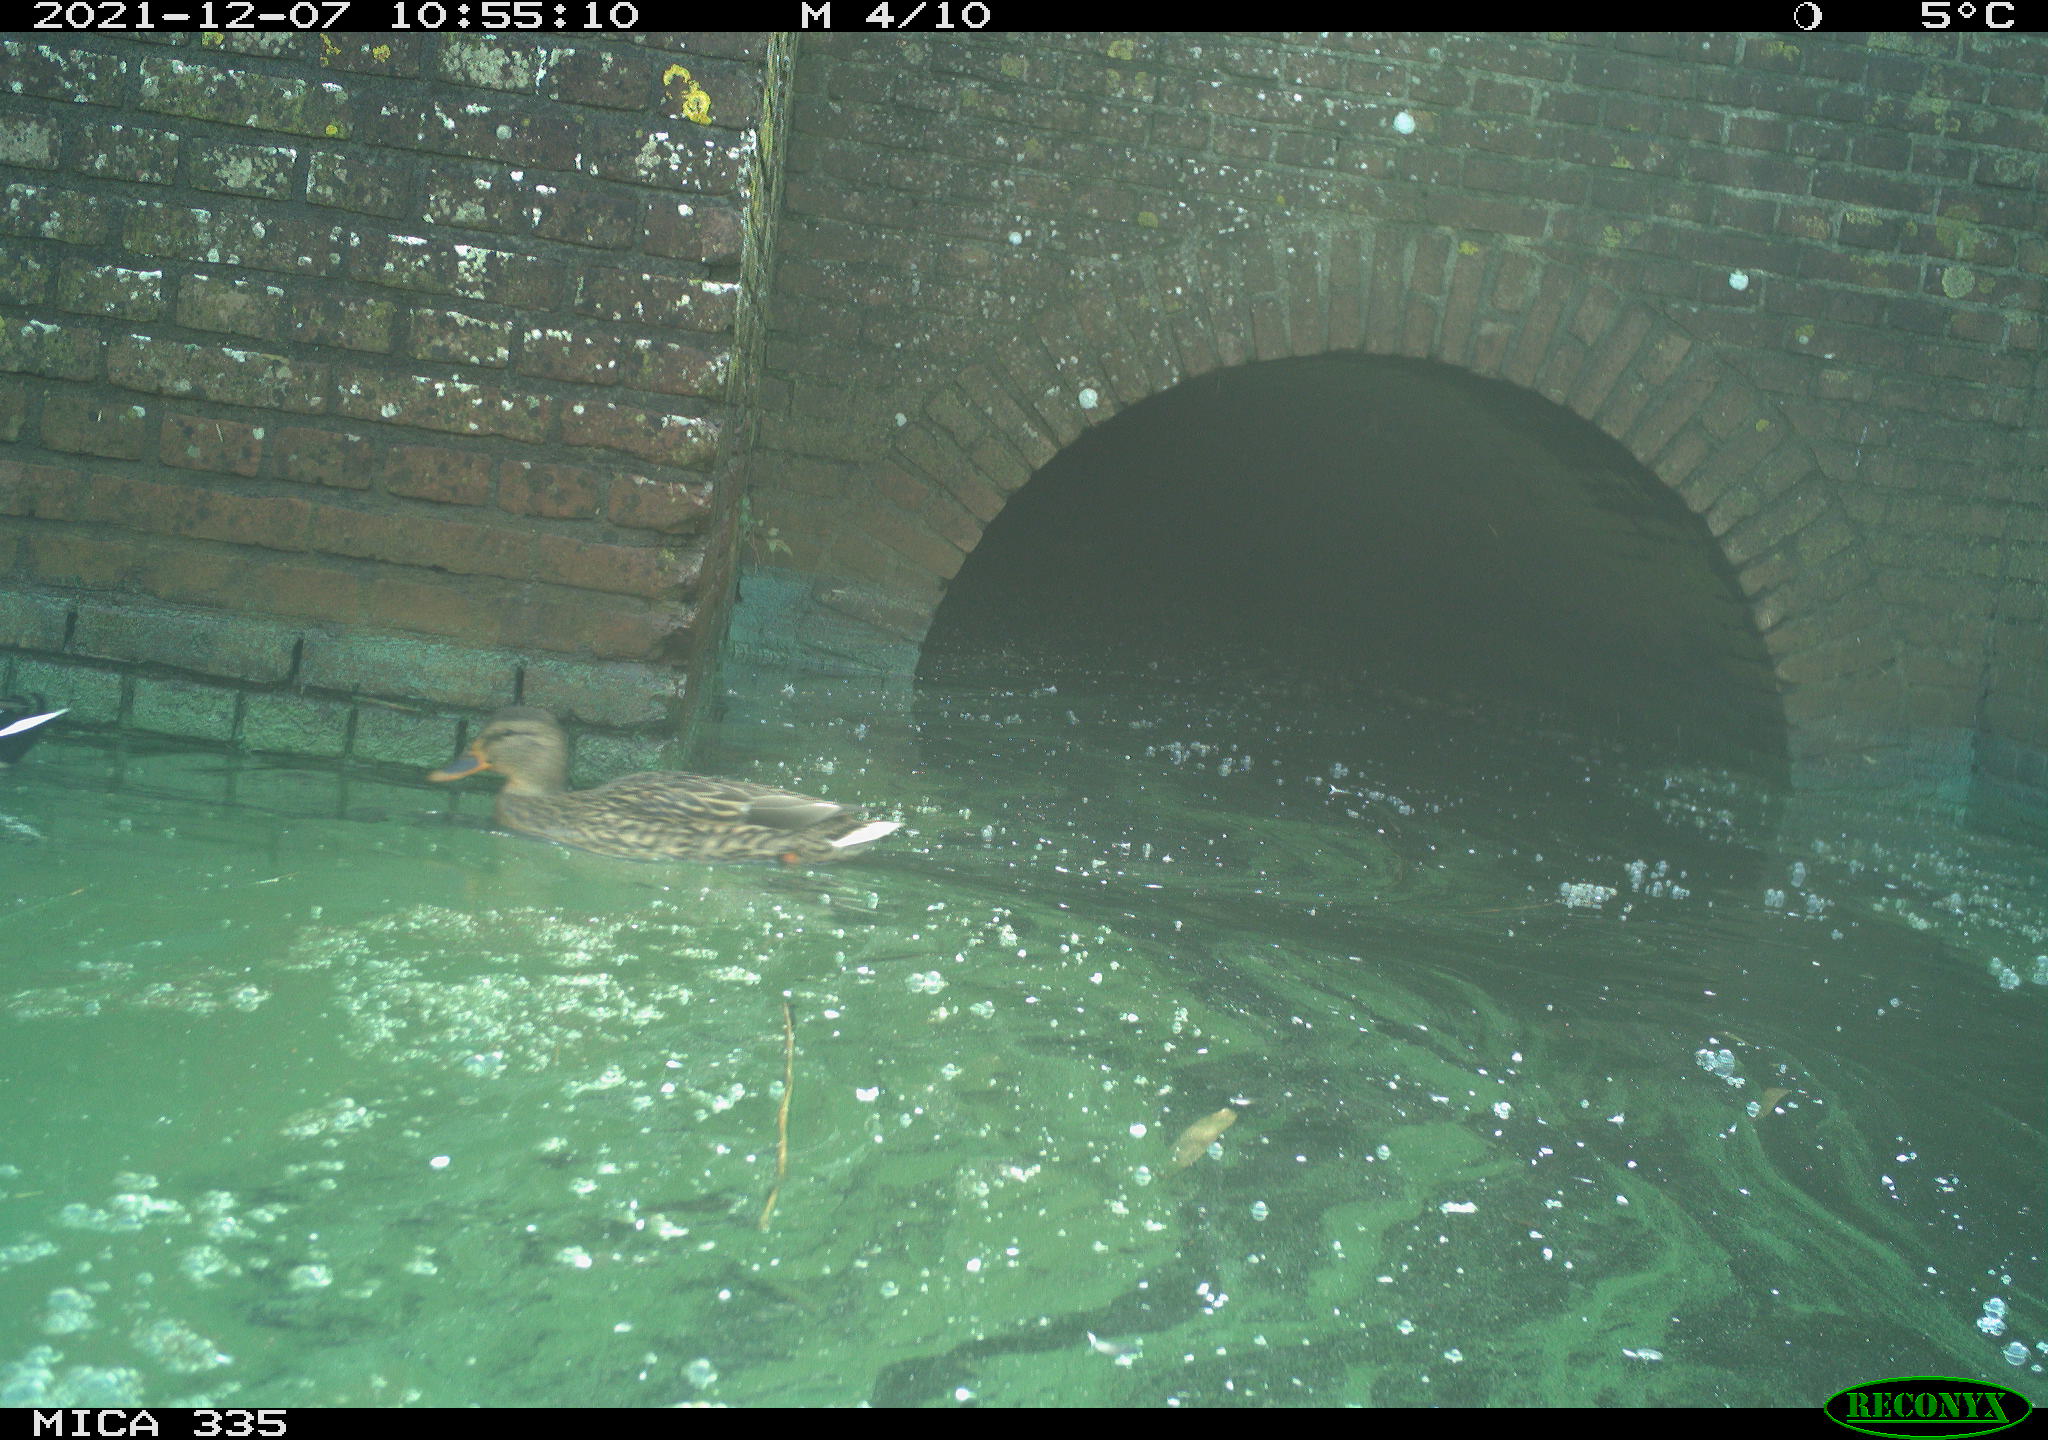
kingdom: Animalia
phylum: Chordata
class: Aves
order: Anseriformes
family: Anatidae
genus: Anas
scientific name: Anas platyrhynchos
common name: Mallard
